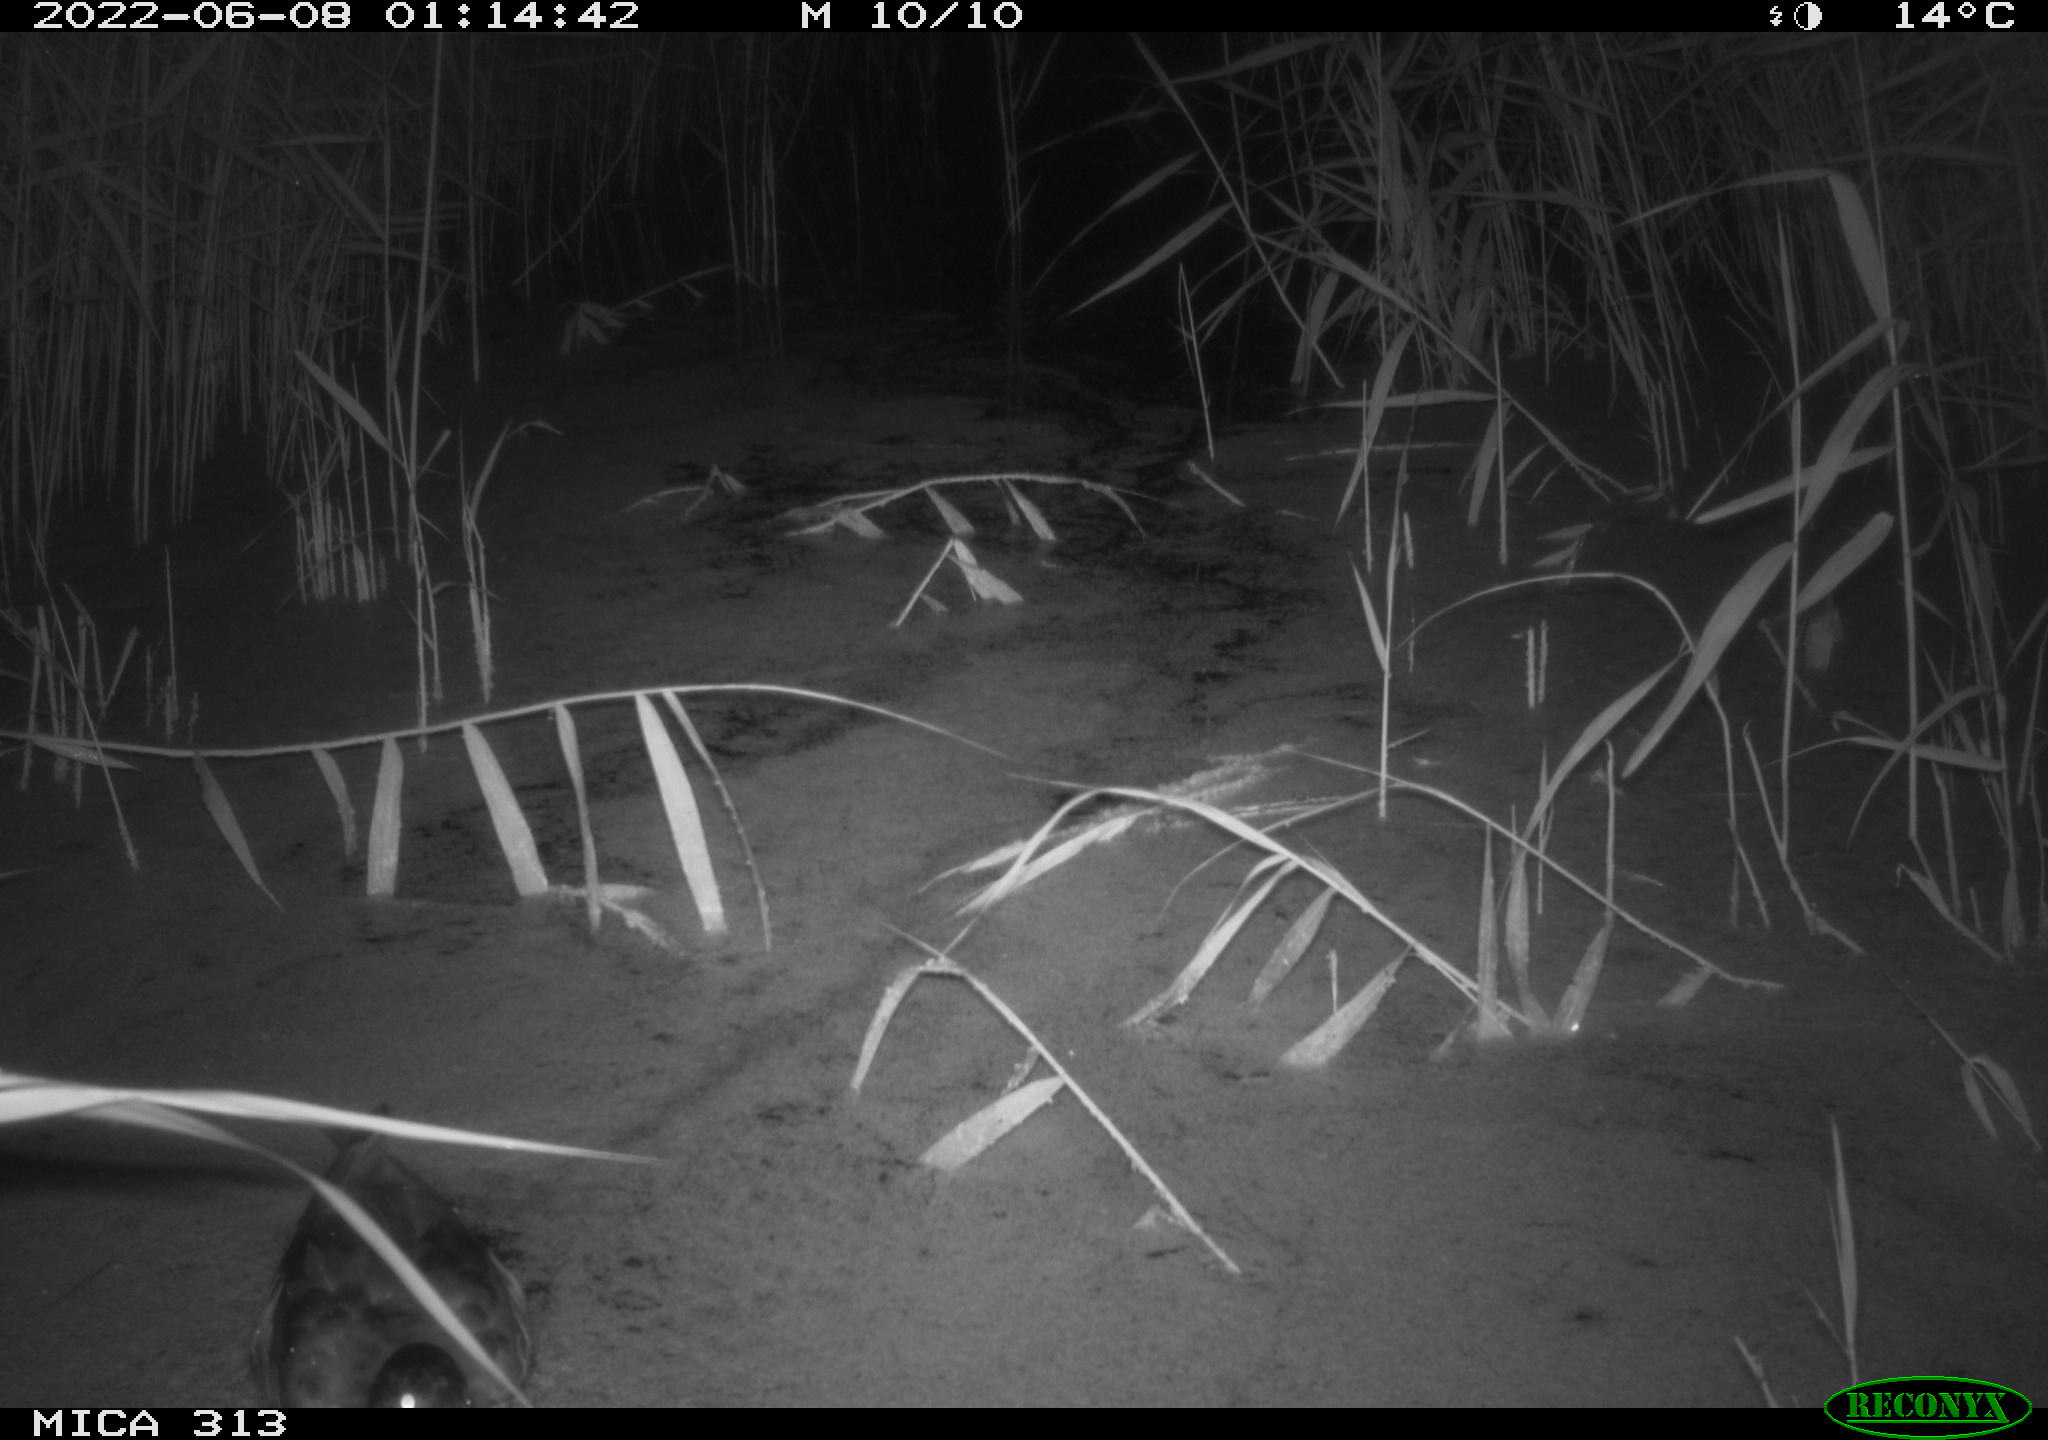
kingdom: Animalia
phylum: Chordata
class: Aves
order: Anseriformes
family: Anatidae
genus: Anas
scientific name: Anas platyrhynchos
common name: Mallard
